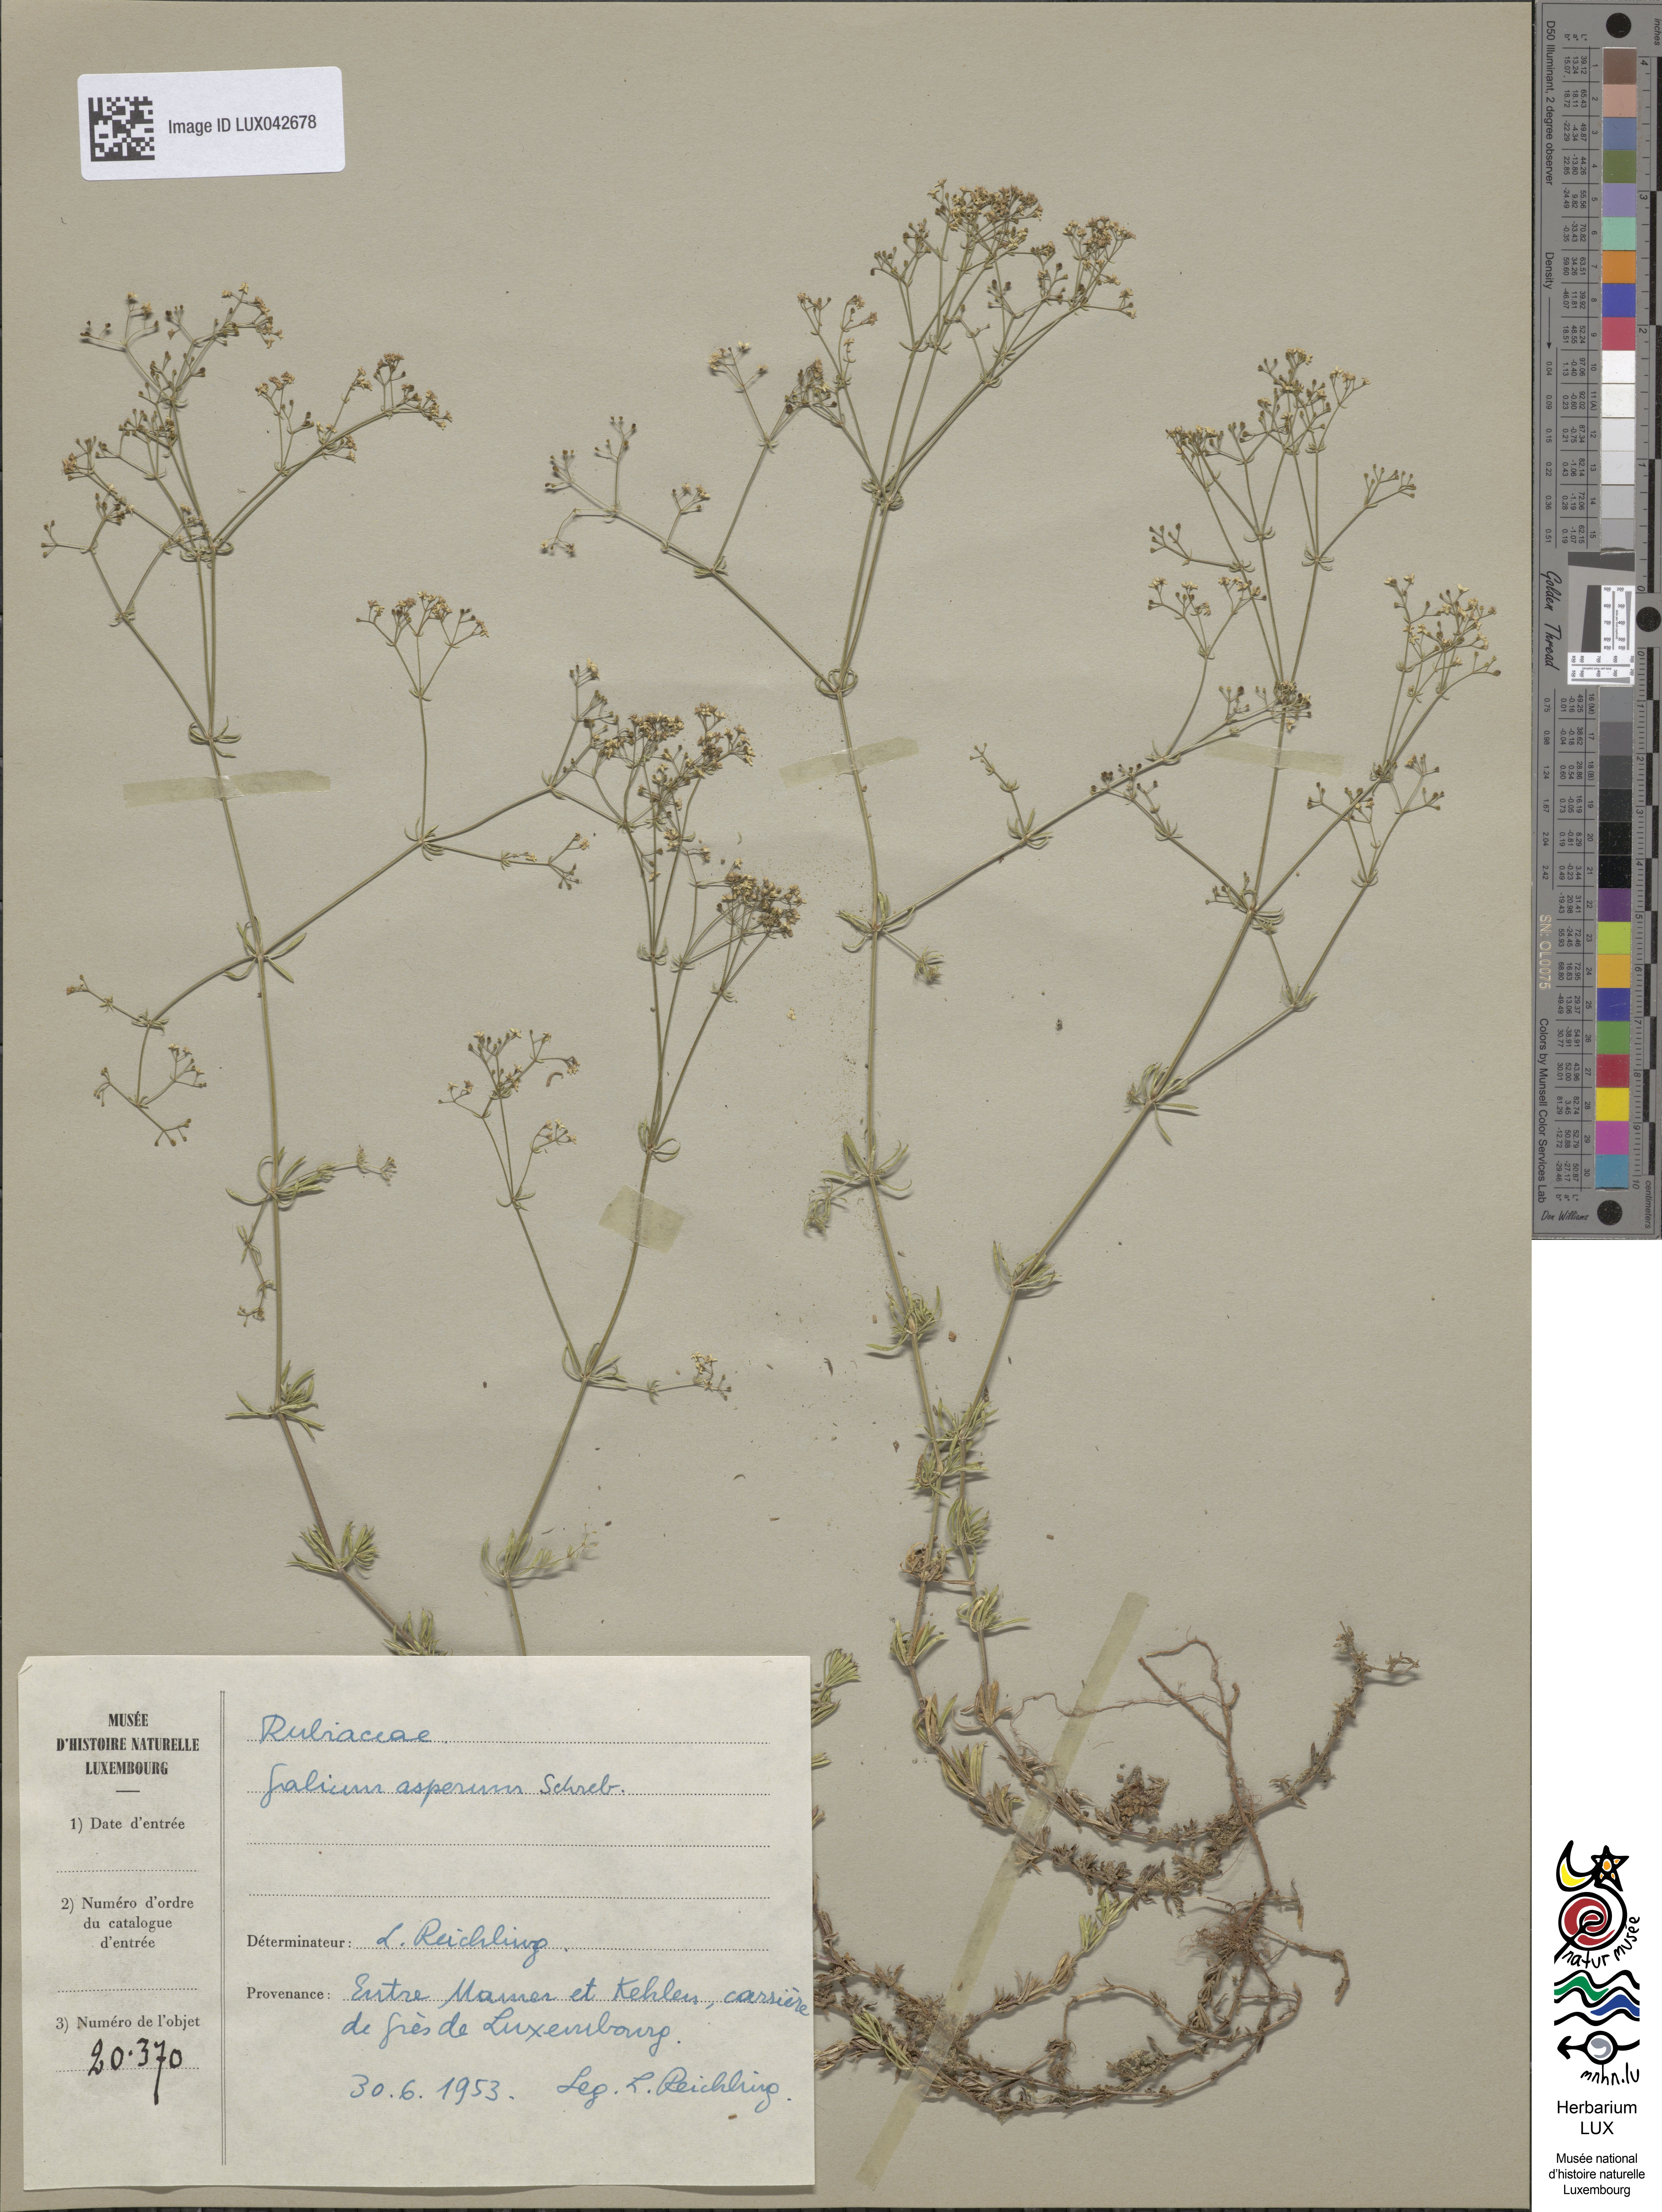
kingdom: Plantae
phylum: Tracheophyta
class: Magnoliopsida
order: Gentianales
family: Rubiaceae
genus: Galium
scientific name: Galium pumilum
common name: Slender bedstraw
